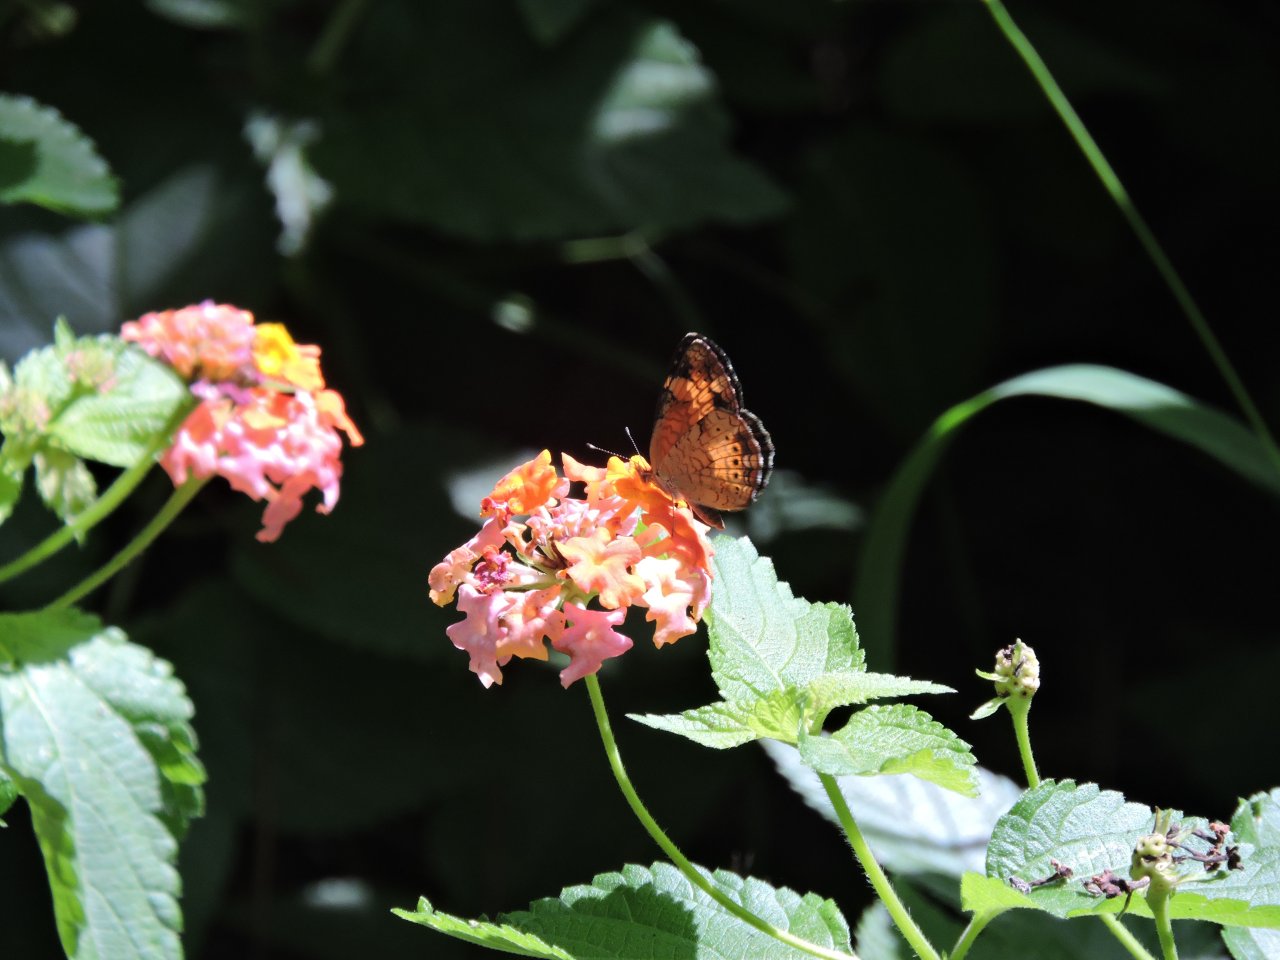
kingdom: Animalia
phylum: Arthropoda
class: Insecta
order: Lepidoptera
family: Nymphalidae
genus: Phyciodes
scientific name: Phyciodes tharos
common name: Pearl Crescent
